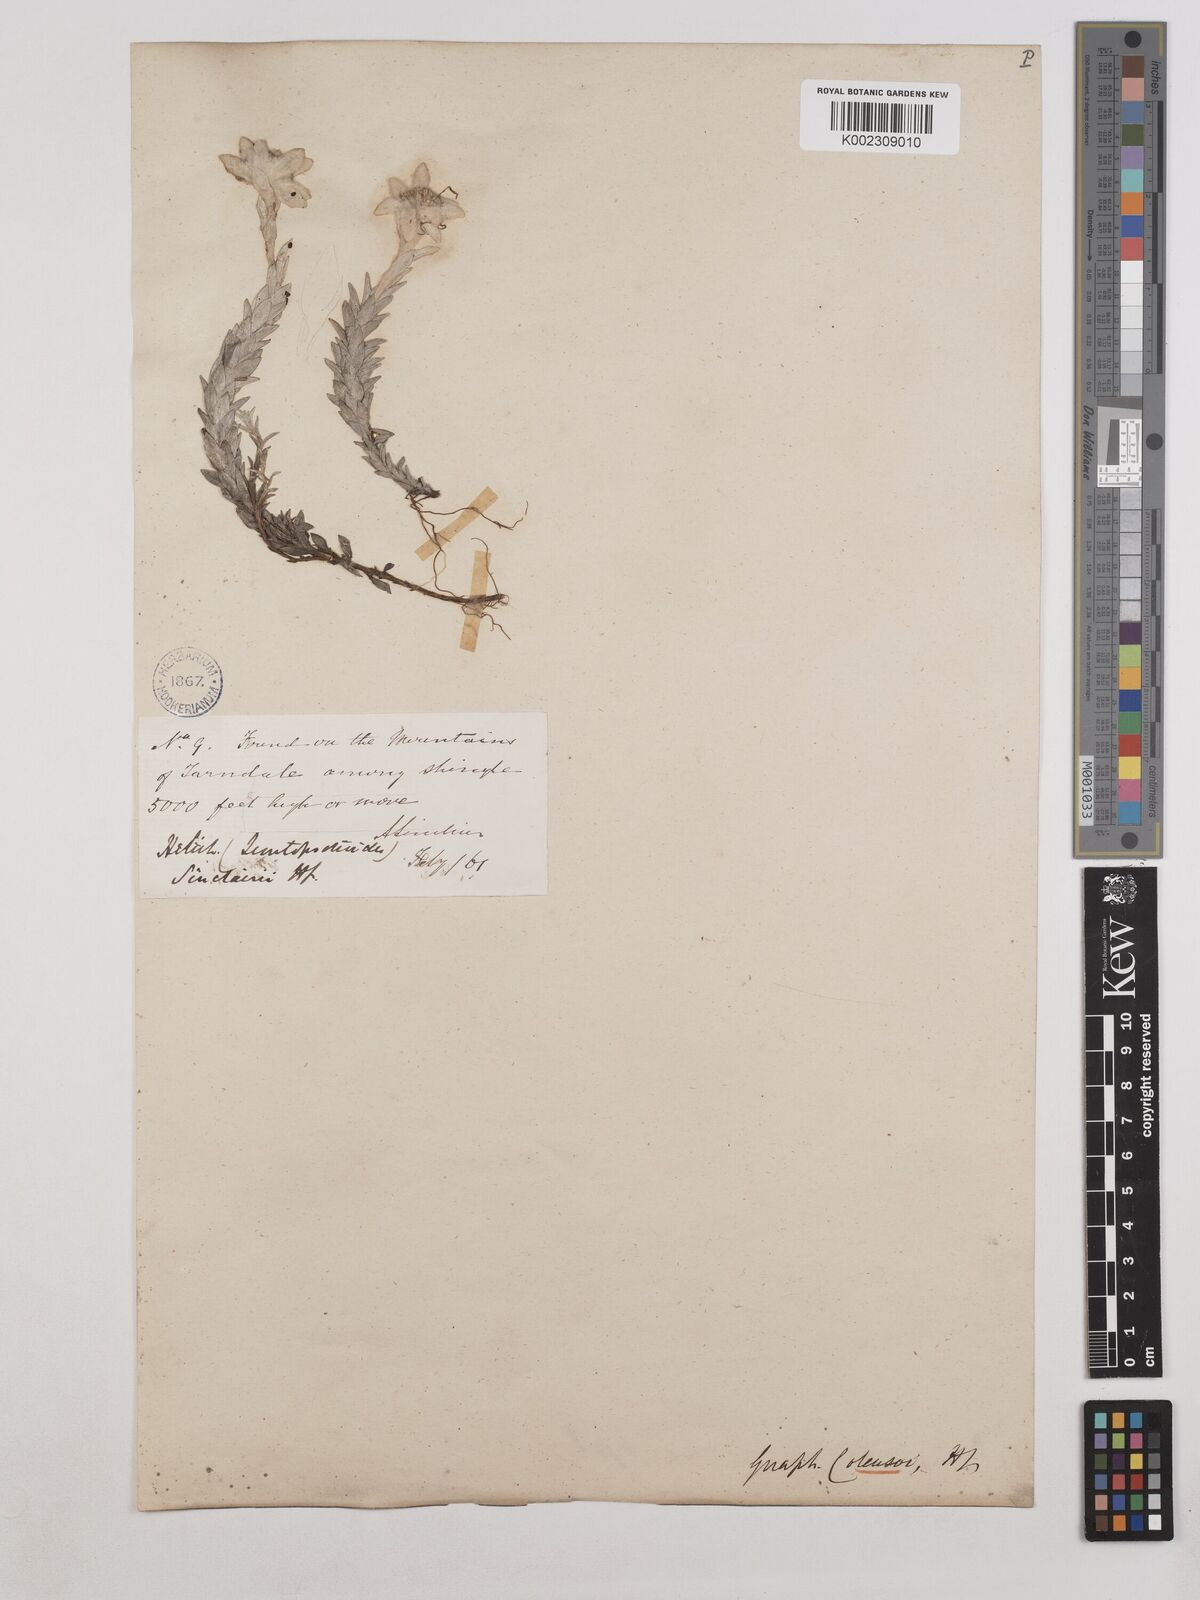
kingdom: Plantae
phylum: Tracheophyta
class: Magnoliopsida
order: Asterales
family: Asteraceae
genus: Leucogenes
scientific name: Leucogenes leontopodium
